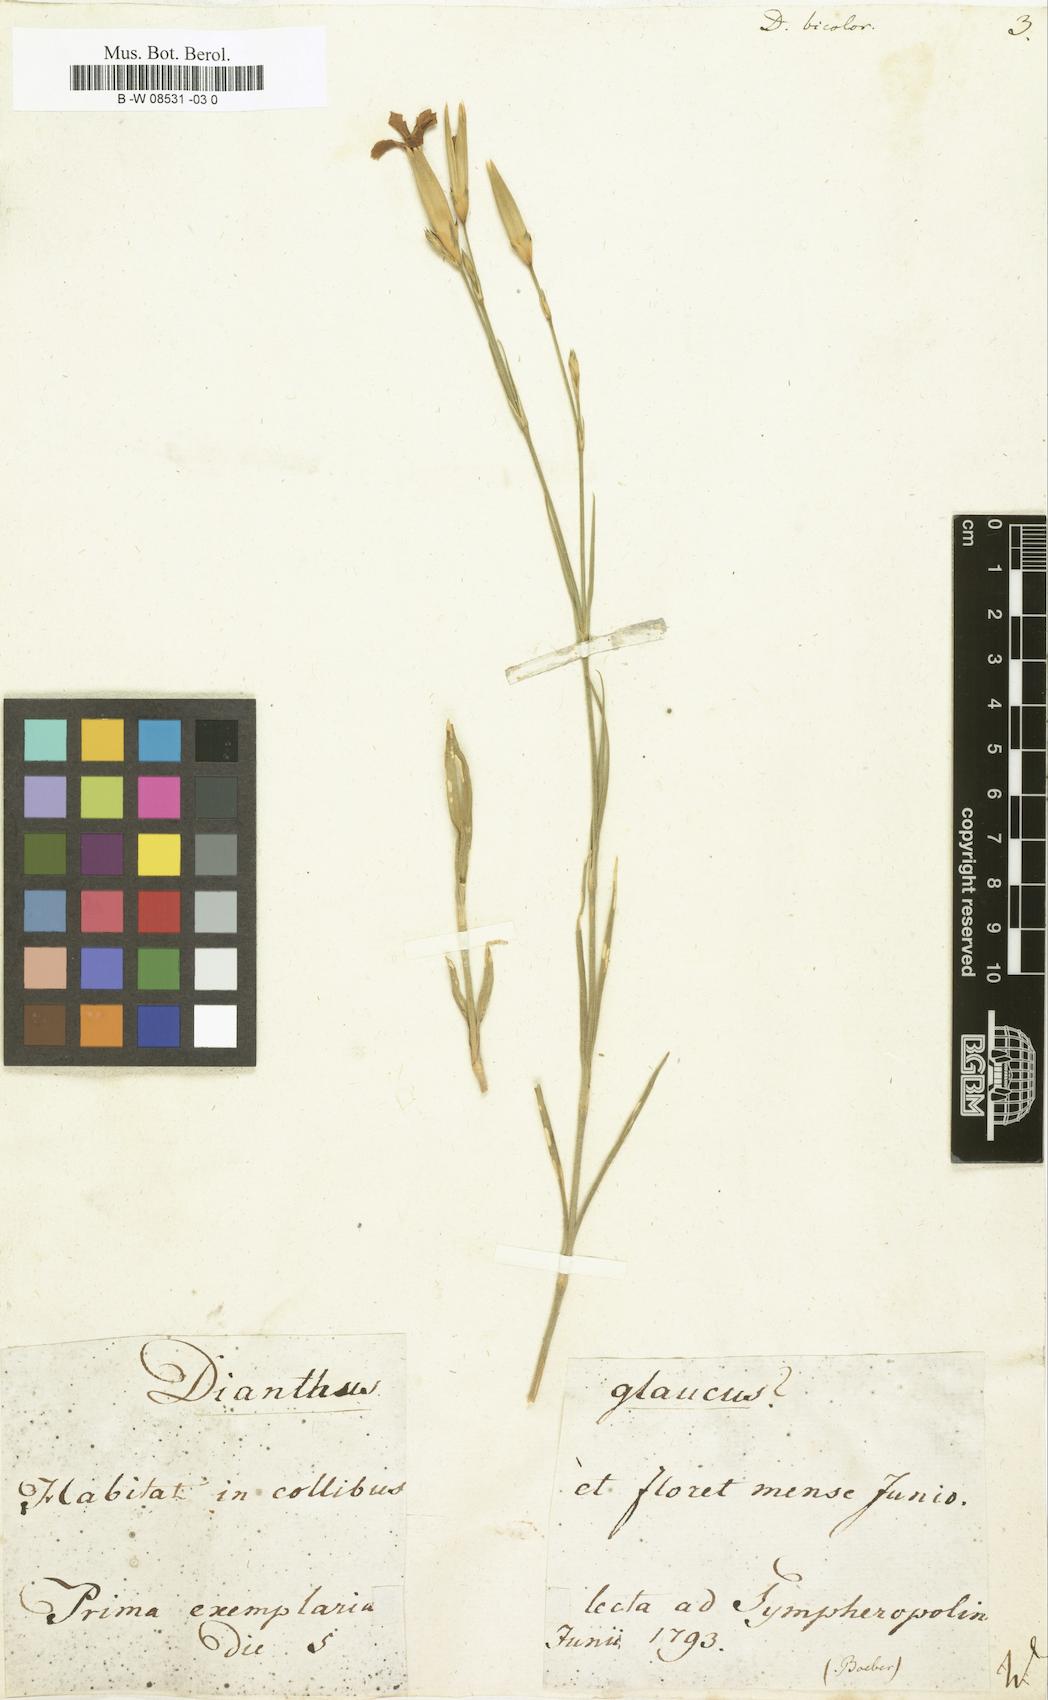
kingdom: Plantae
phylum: Tracheophyta
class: Magnoliopsida
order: Caryophyllales
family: Caryophyllaceae
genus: Dianthus
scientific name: Dianthus bicolor
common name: Bicolour pink
